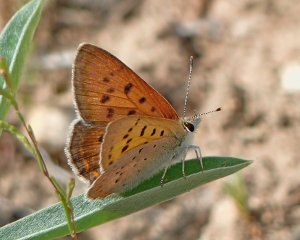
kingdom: Animalia
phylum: Arthropoda
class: Insecta
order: Lepidoptera
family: Sesiidae
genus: Sesia
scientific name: Sesia Lycaena helloides
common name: Purplish Copper
